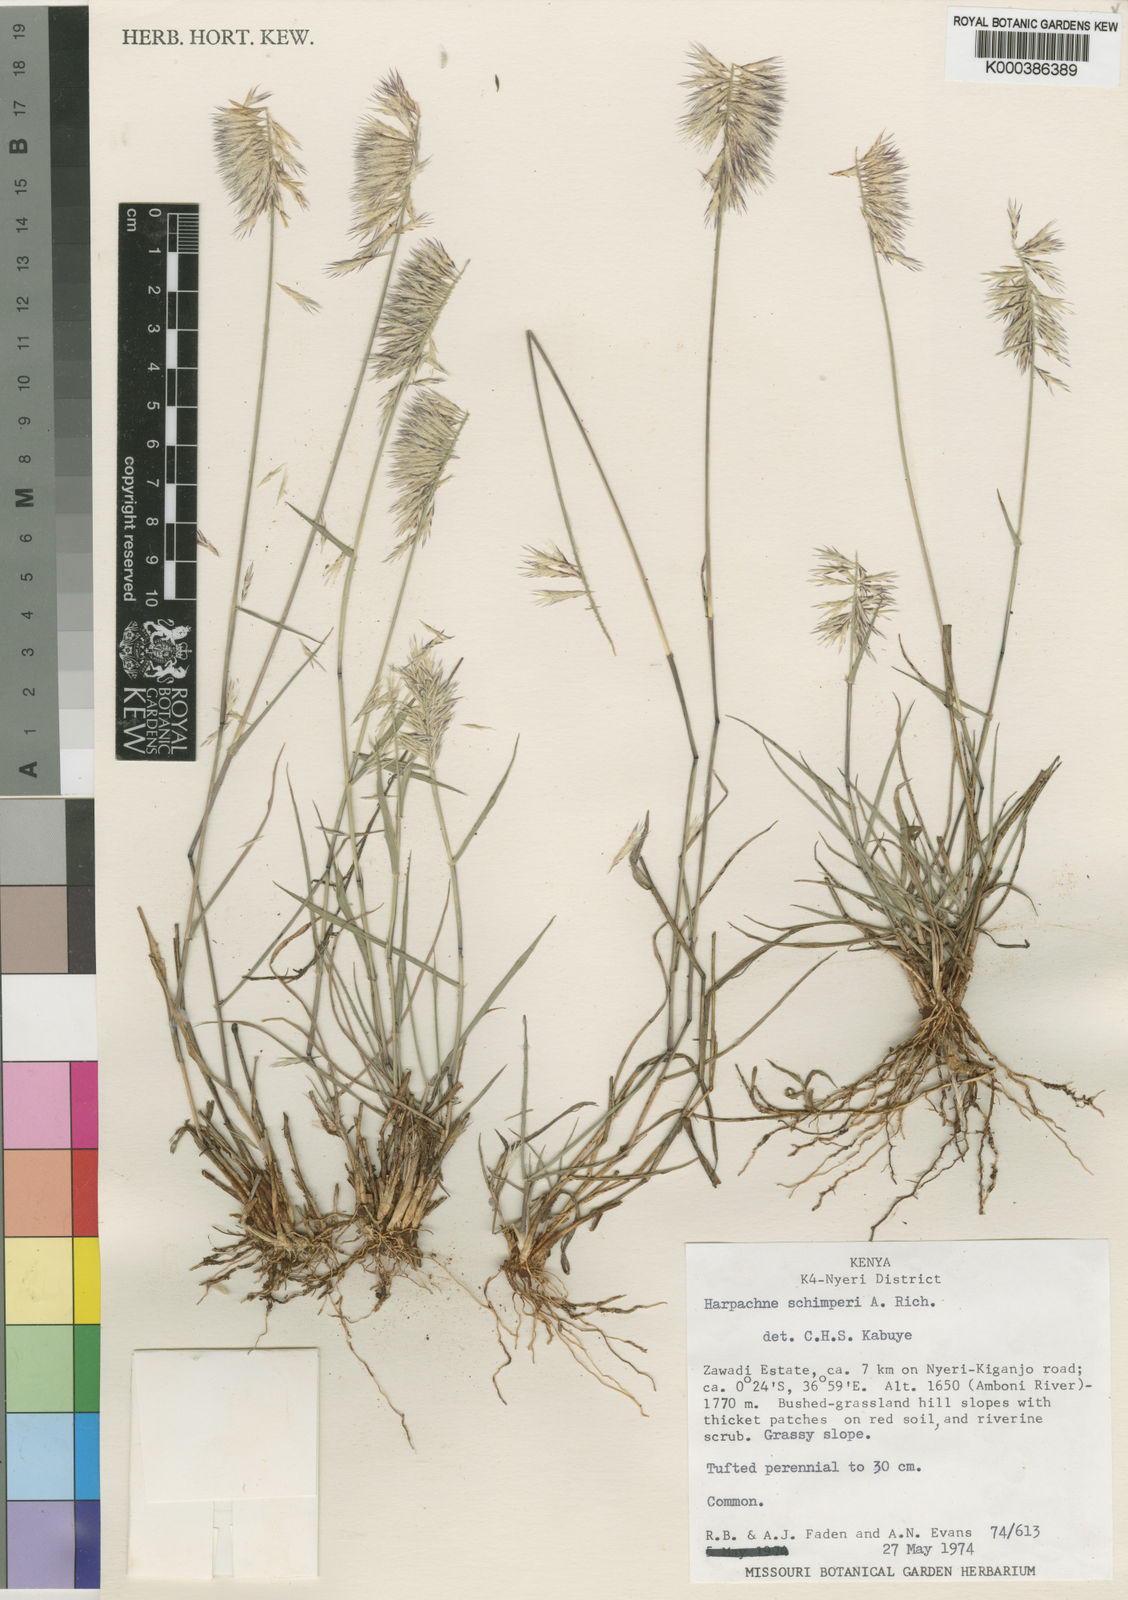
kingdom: Plantae
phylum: Tracheophyta
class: Liliopsida
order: Poales
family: Poaceae
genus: Harpachne
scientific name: Harpachne bogdanii
